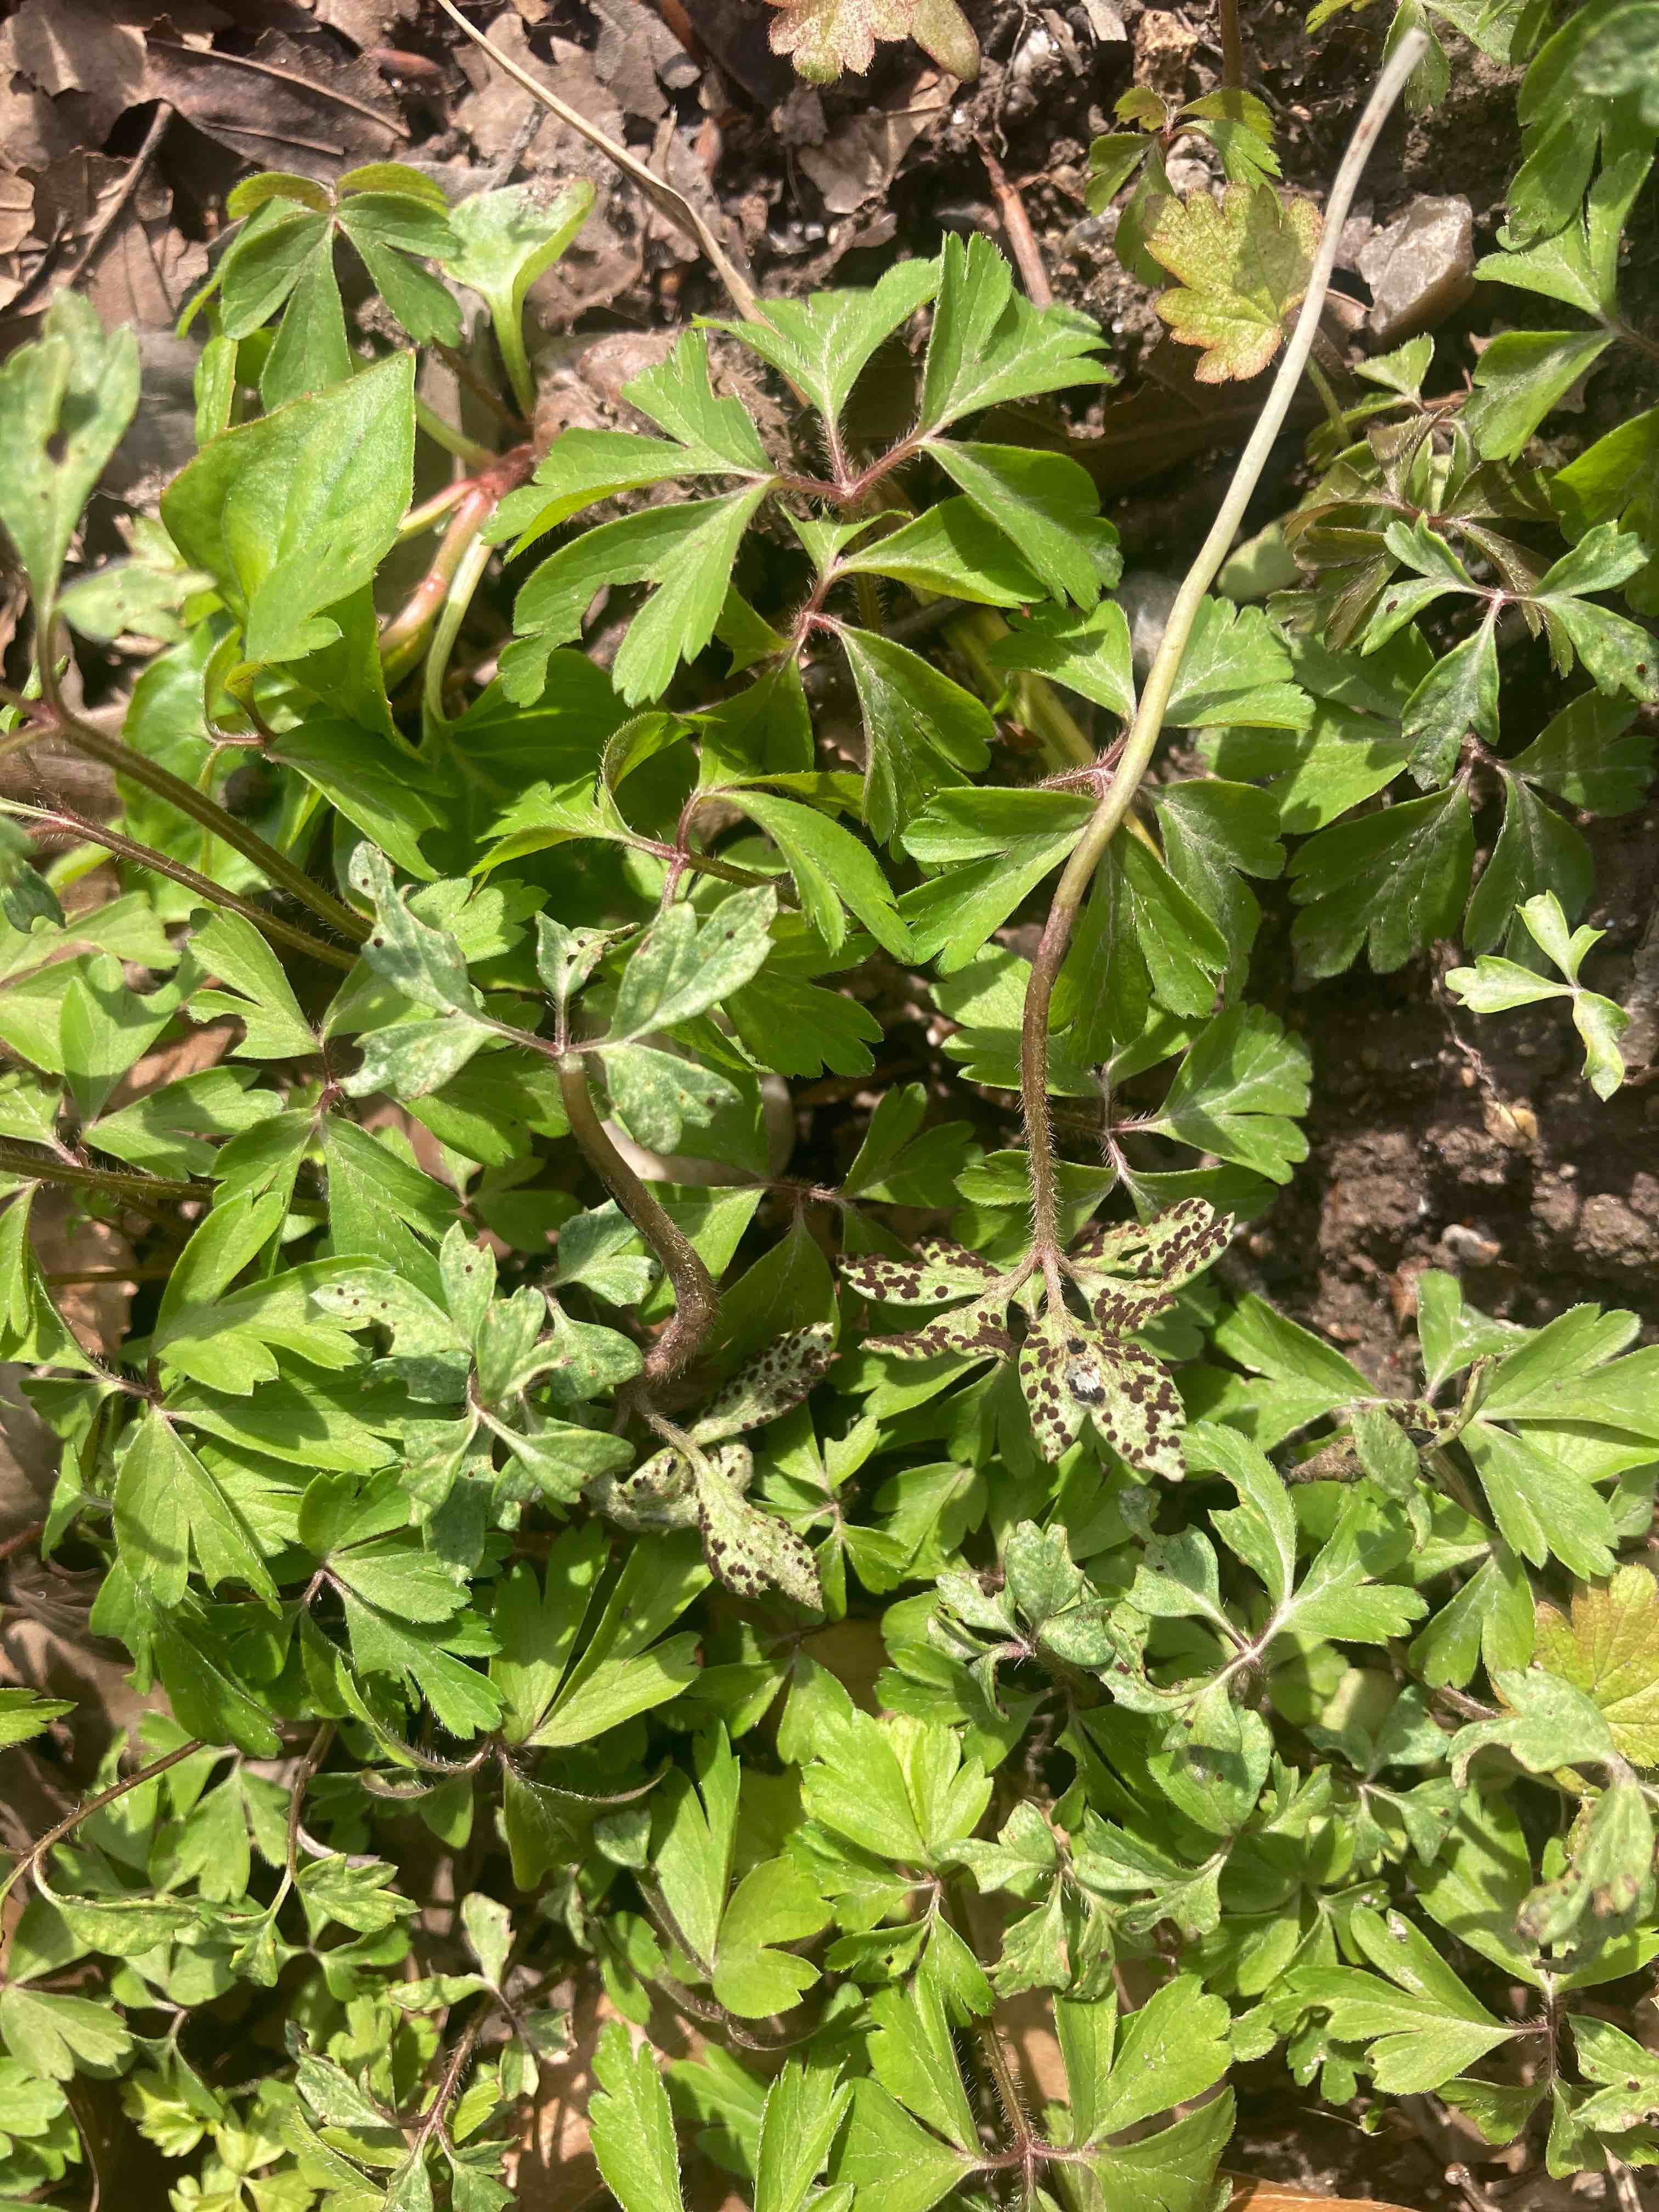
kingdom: Fungi
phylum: Basidiomycota
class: Pucciniomycetes
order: Pucciniales
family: Tranzscheliaceae
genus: Tranzschelia
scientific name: Tranzschelia anemones
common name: anemone-knæksporerust
